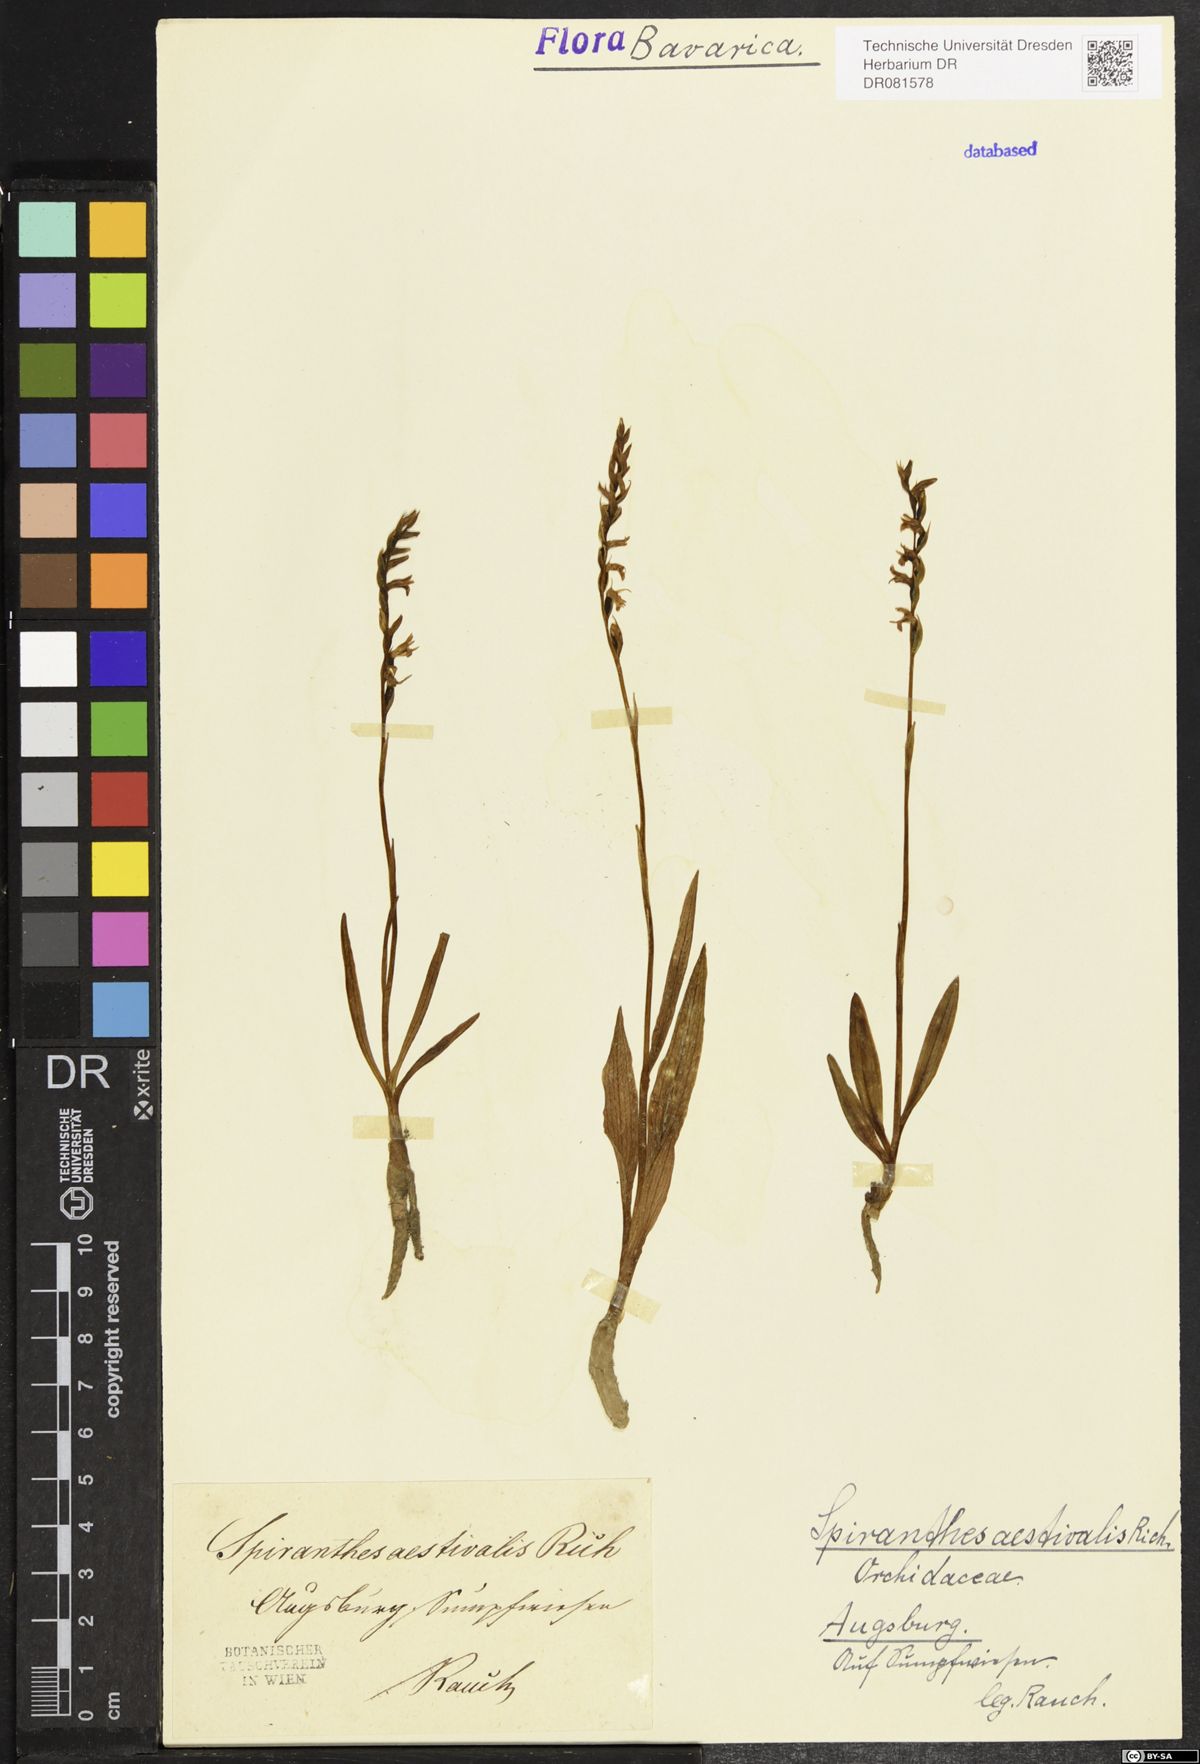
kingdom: Plantae
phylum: Tracheophyta
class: Liliopsida
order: Asparagales
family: Orchidaceae
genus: Spiranthes
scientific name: Spiranthes aestivalis
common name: Summer lady's-tresses
